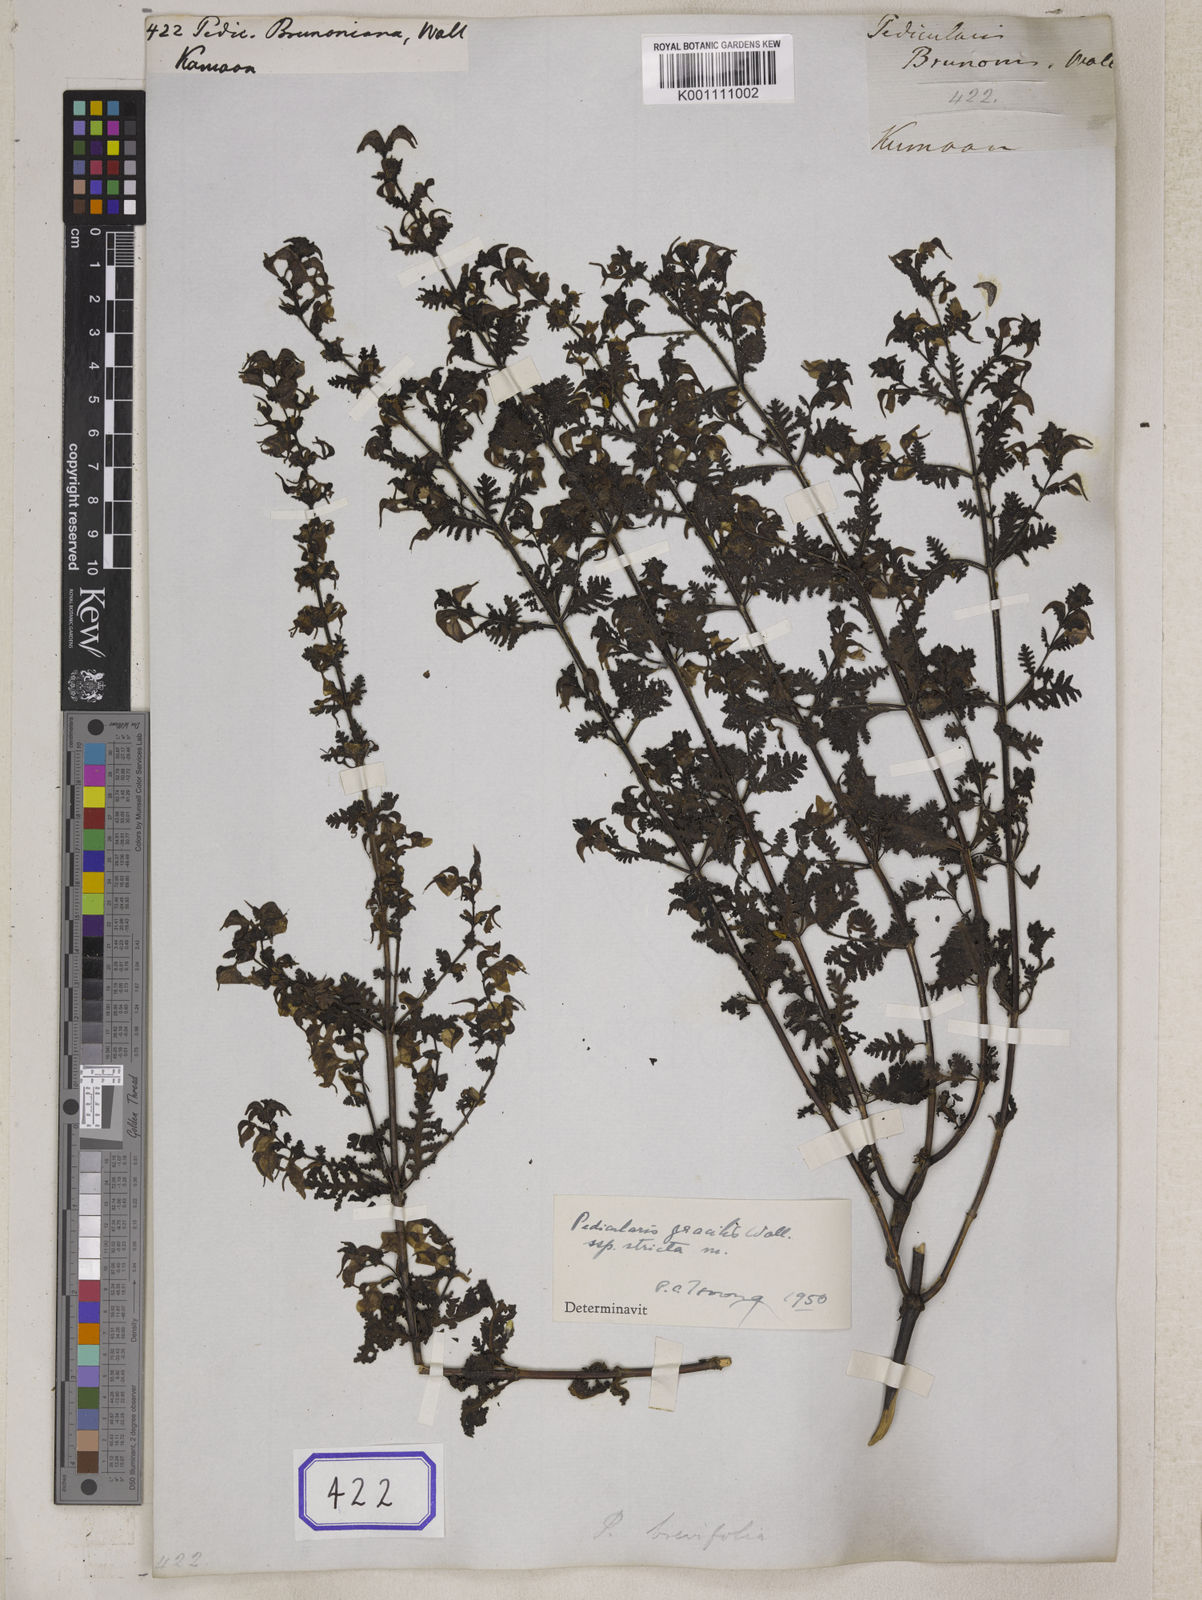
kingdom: Plantae
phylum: Tracheophyta
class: Magnoliopsida
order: Lamiales
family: Orobanchaceae
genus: Pedicularis
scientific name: Pedicularis
